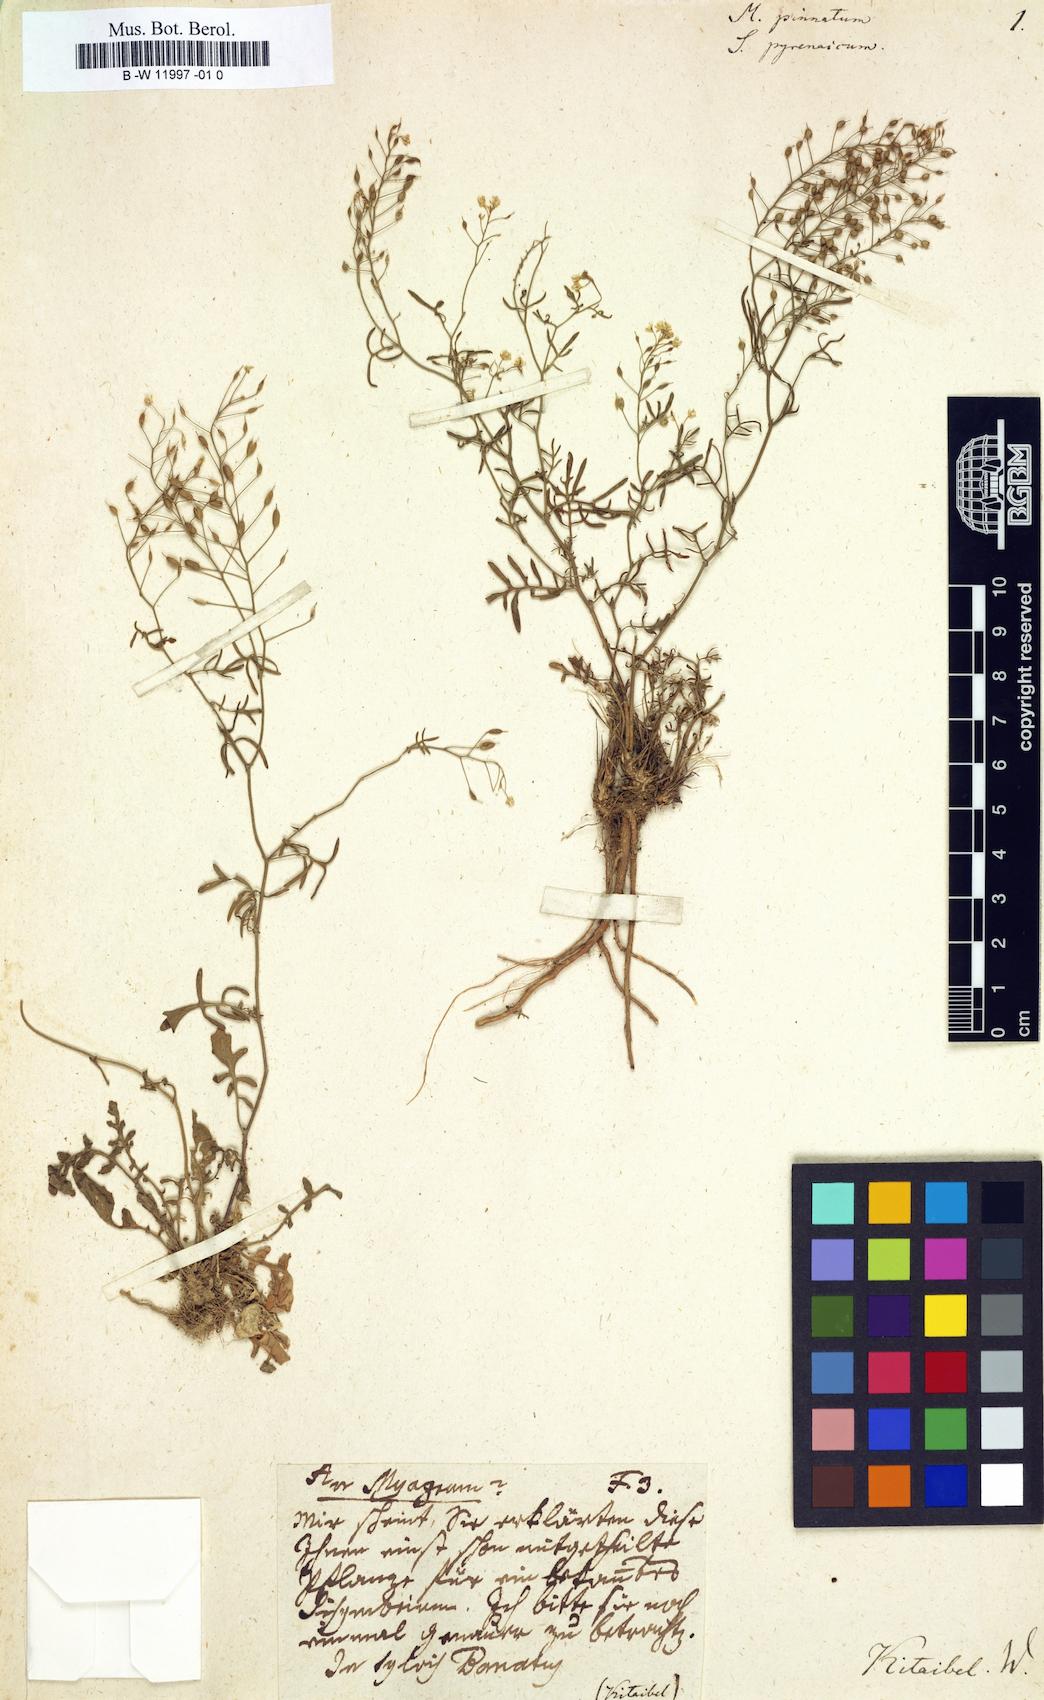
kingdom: Plantae
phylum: Tracheophyta
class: Magnoliopsida
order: Brassicales
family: Brassicaceae
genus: Cardamine
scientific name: Cardamine raphanifolia
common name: Greater cuckooflower
